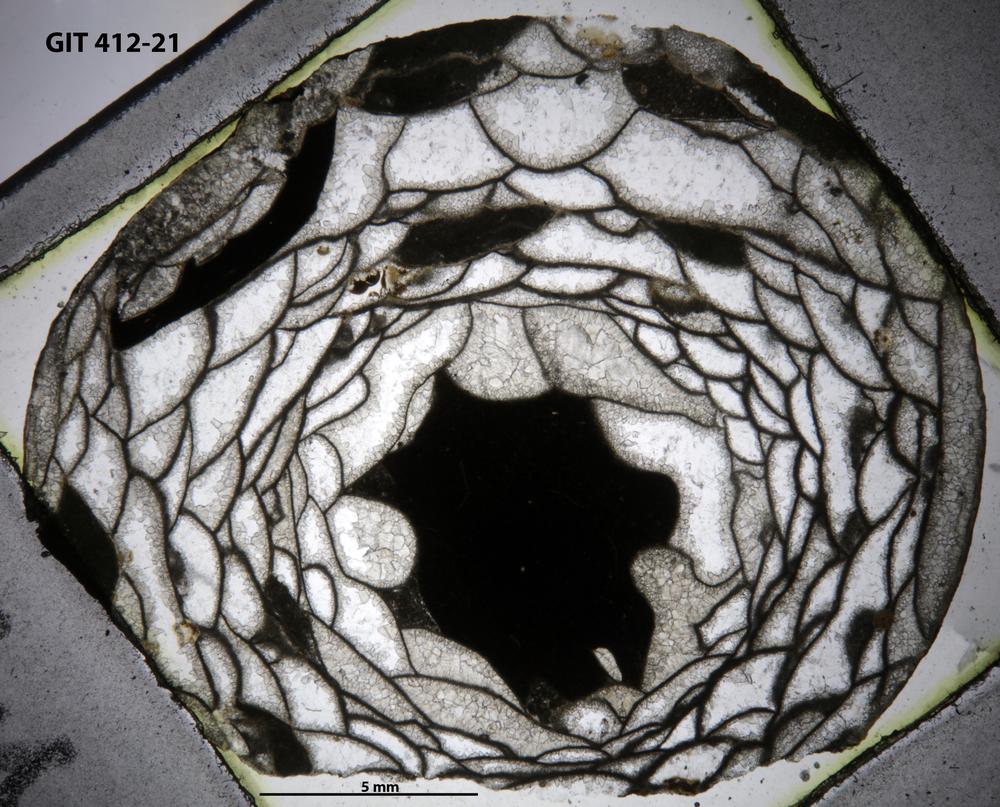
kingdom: Animalia
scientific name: Animalia
